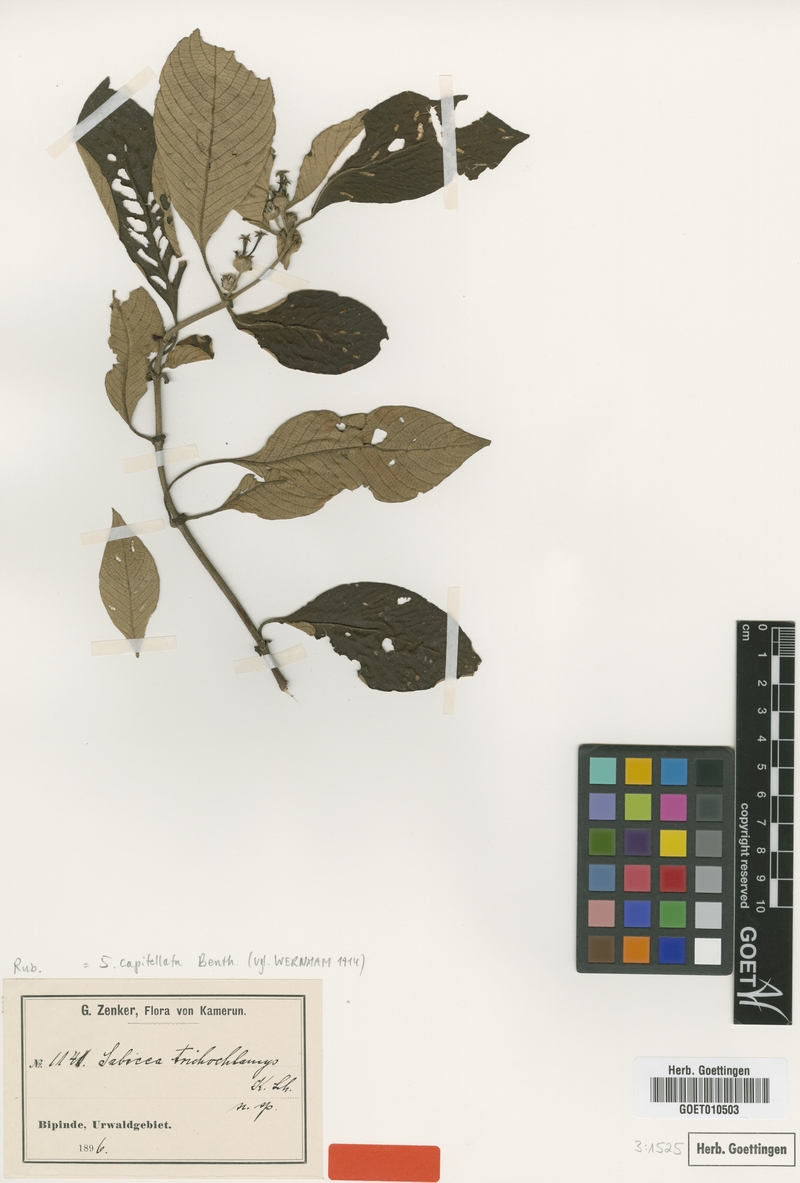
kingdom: Plantae
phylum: Tracheophyta
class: Magnoliopsida
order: Gentianales
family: Rubiaceae
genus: Sabicea
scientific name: Sabicea capitellata
